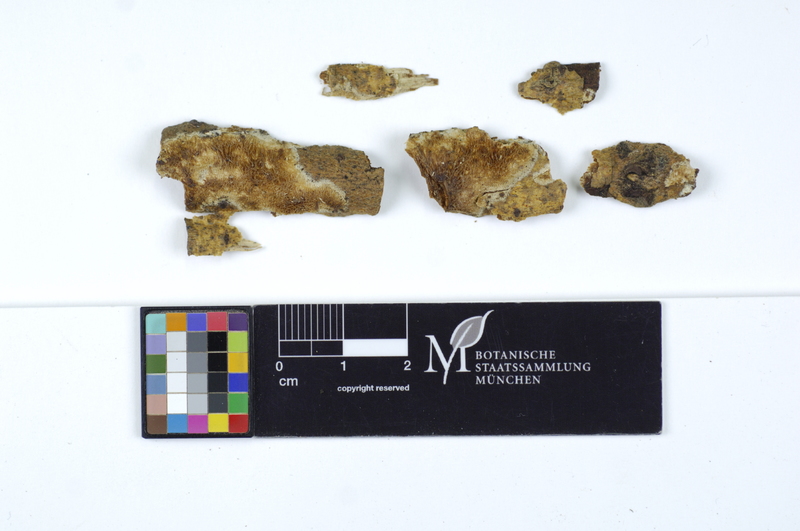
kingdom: Plantae
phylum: Tracheophyta
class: Magnoliopsida
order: Malpighiales
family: Salicaceae
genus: Salix
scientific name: Salix caprea
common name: Goat willow
